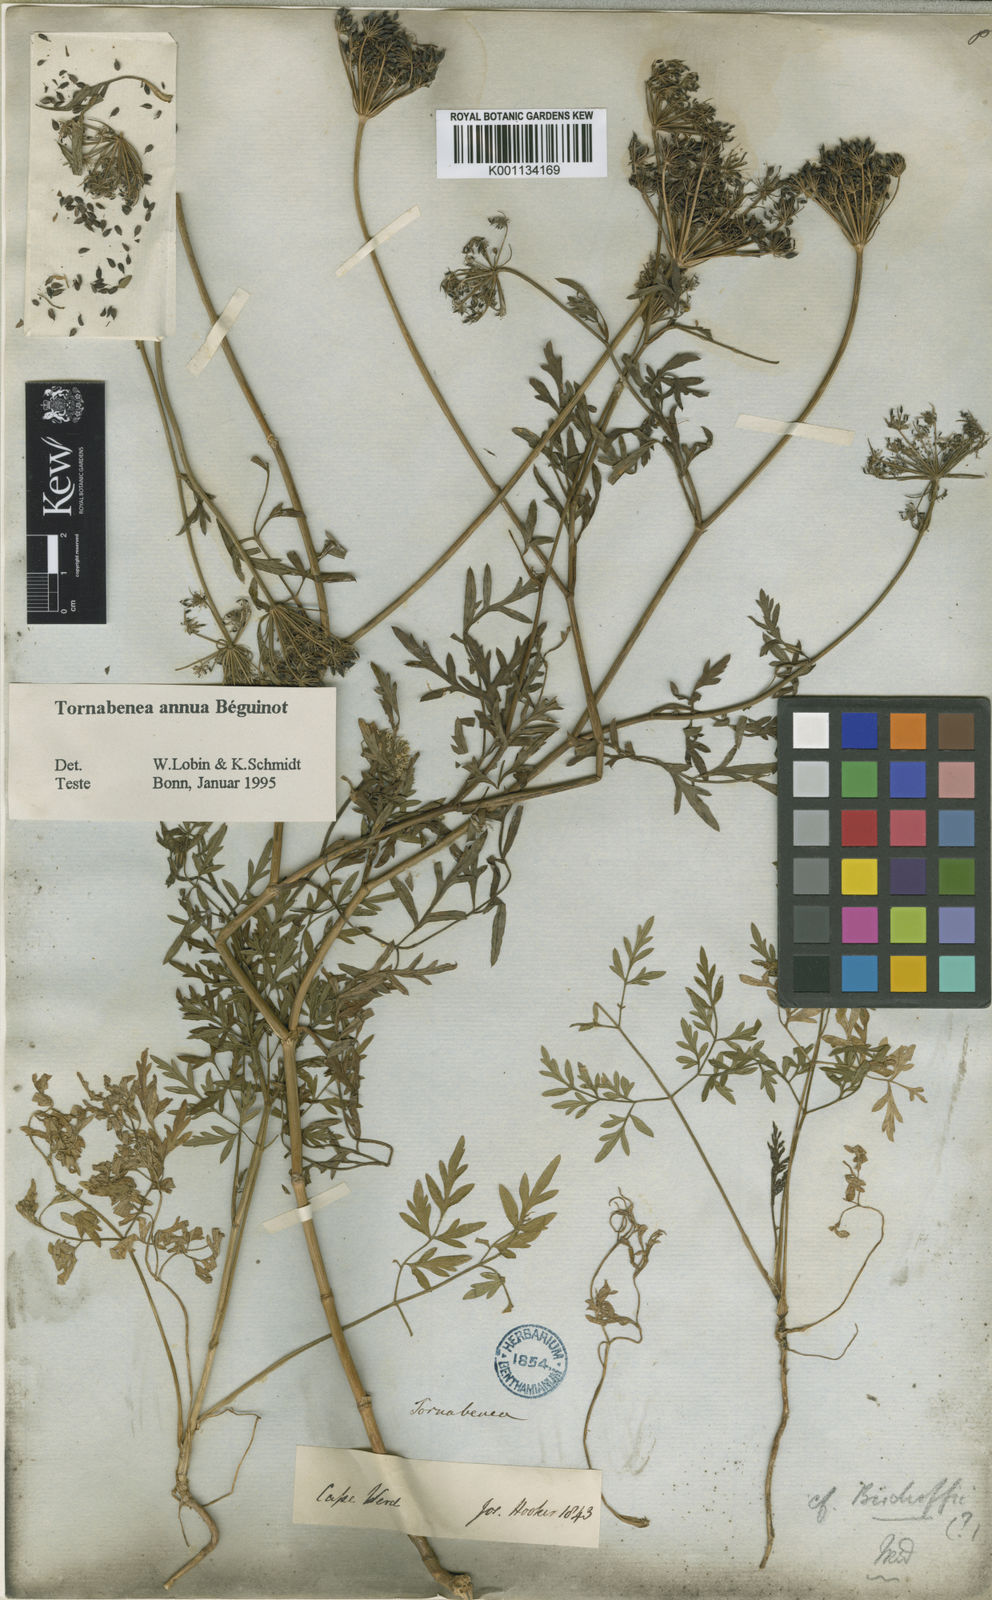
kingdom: Plantae
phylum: Tracheophyta
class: Magnoliopsida
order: Apiales
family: Apiaceae
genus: Daucus
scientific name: Daucus
